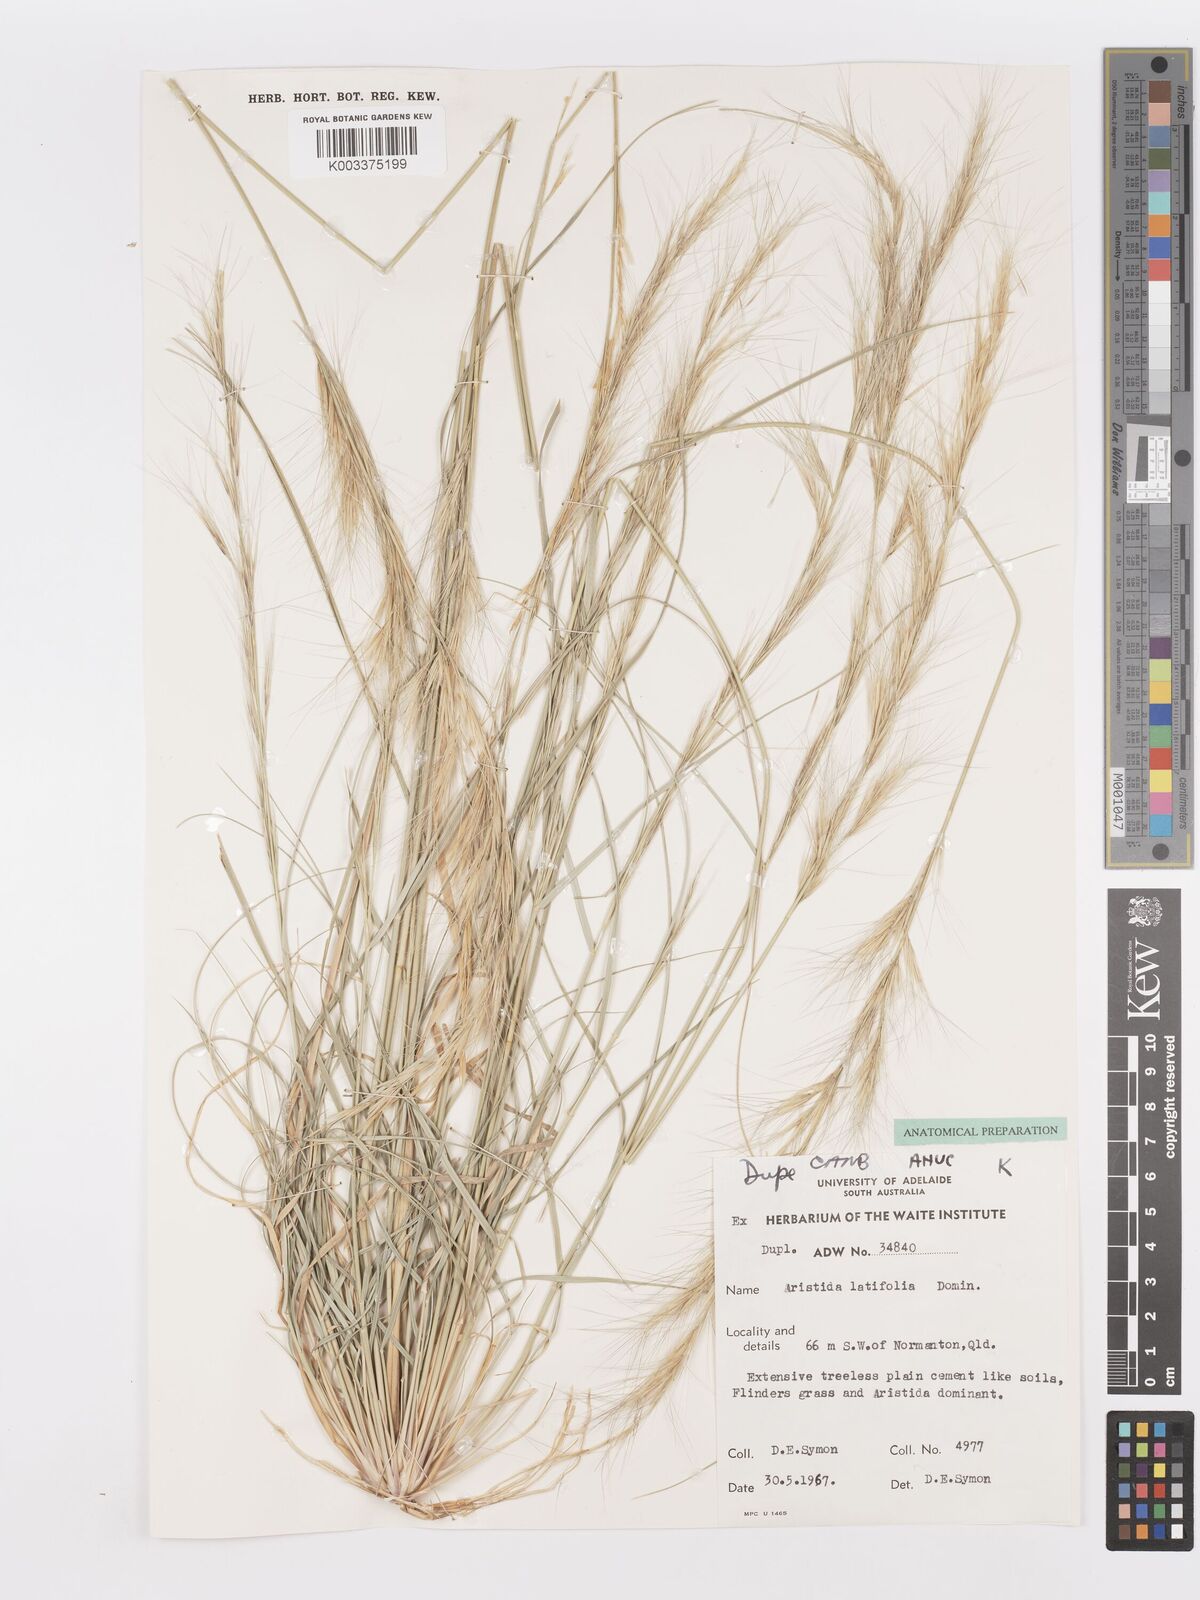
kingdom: Plantae
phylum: Tracheophyta
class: Liliopsida
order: Poales
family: Poaceae
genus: Aristida
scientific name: Aristida latifolia
